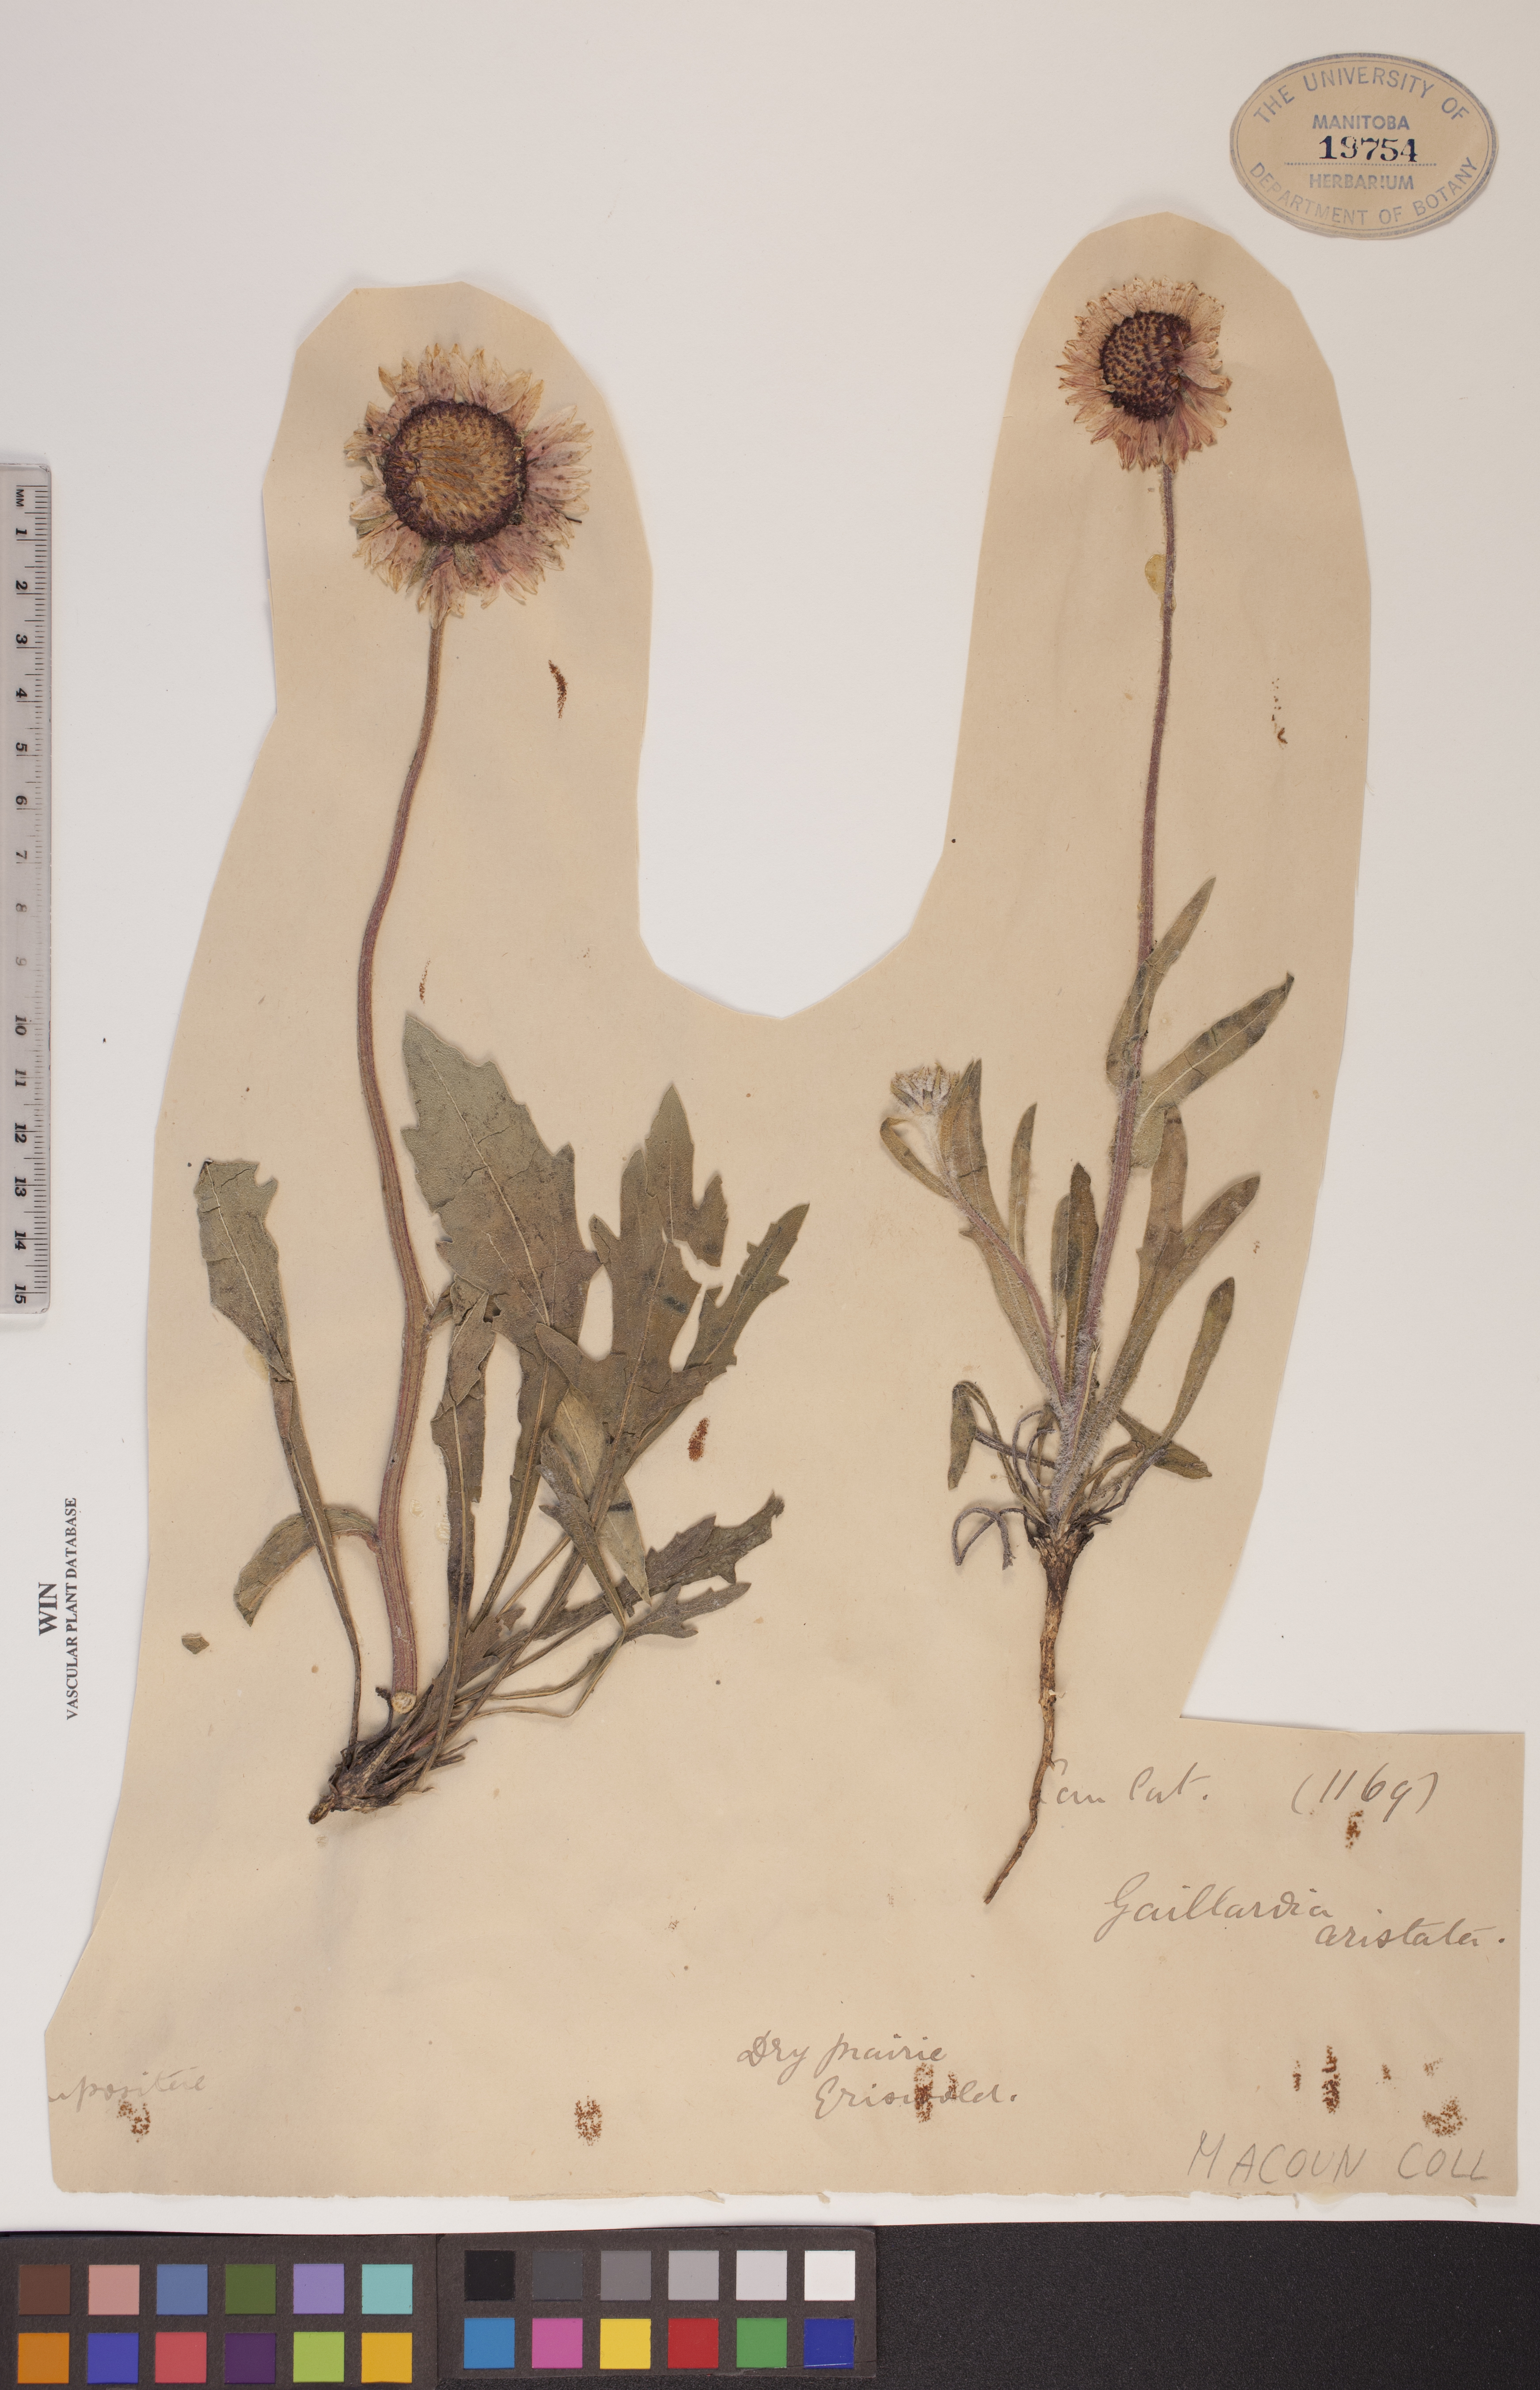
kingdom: Plantae
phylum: Tracheophyta
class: Magnoliopsida
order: Asterales
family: Asteraceae
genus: Gaillardia
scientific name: Gaillardia aristata
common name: Blanket-flower
